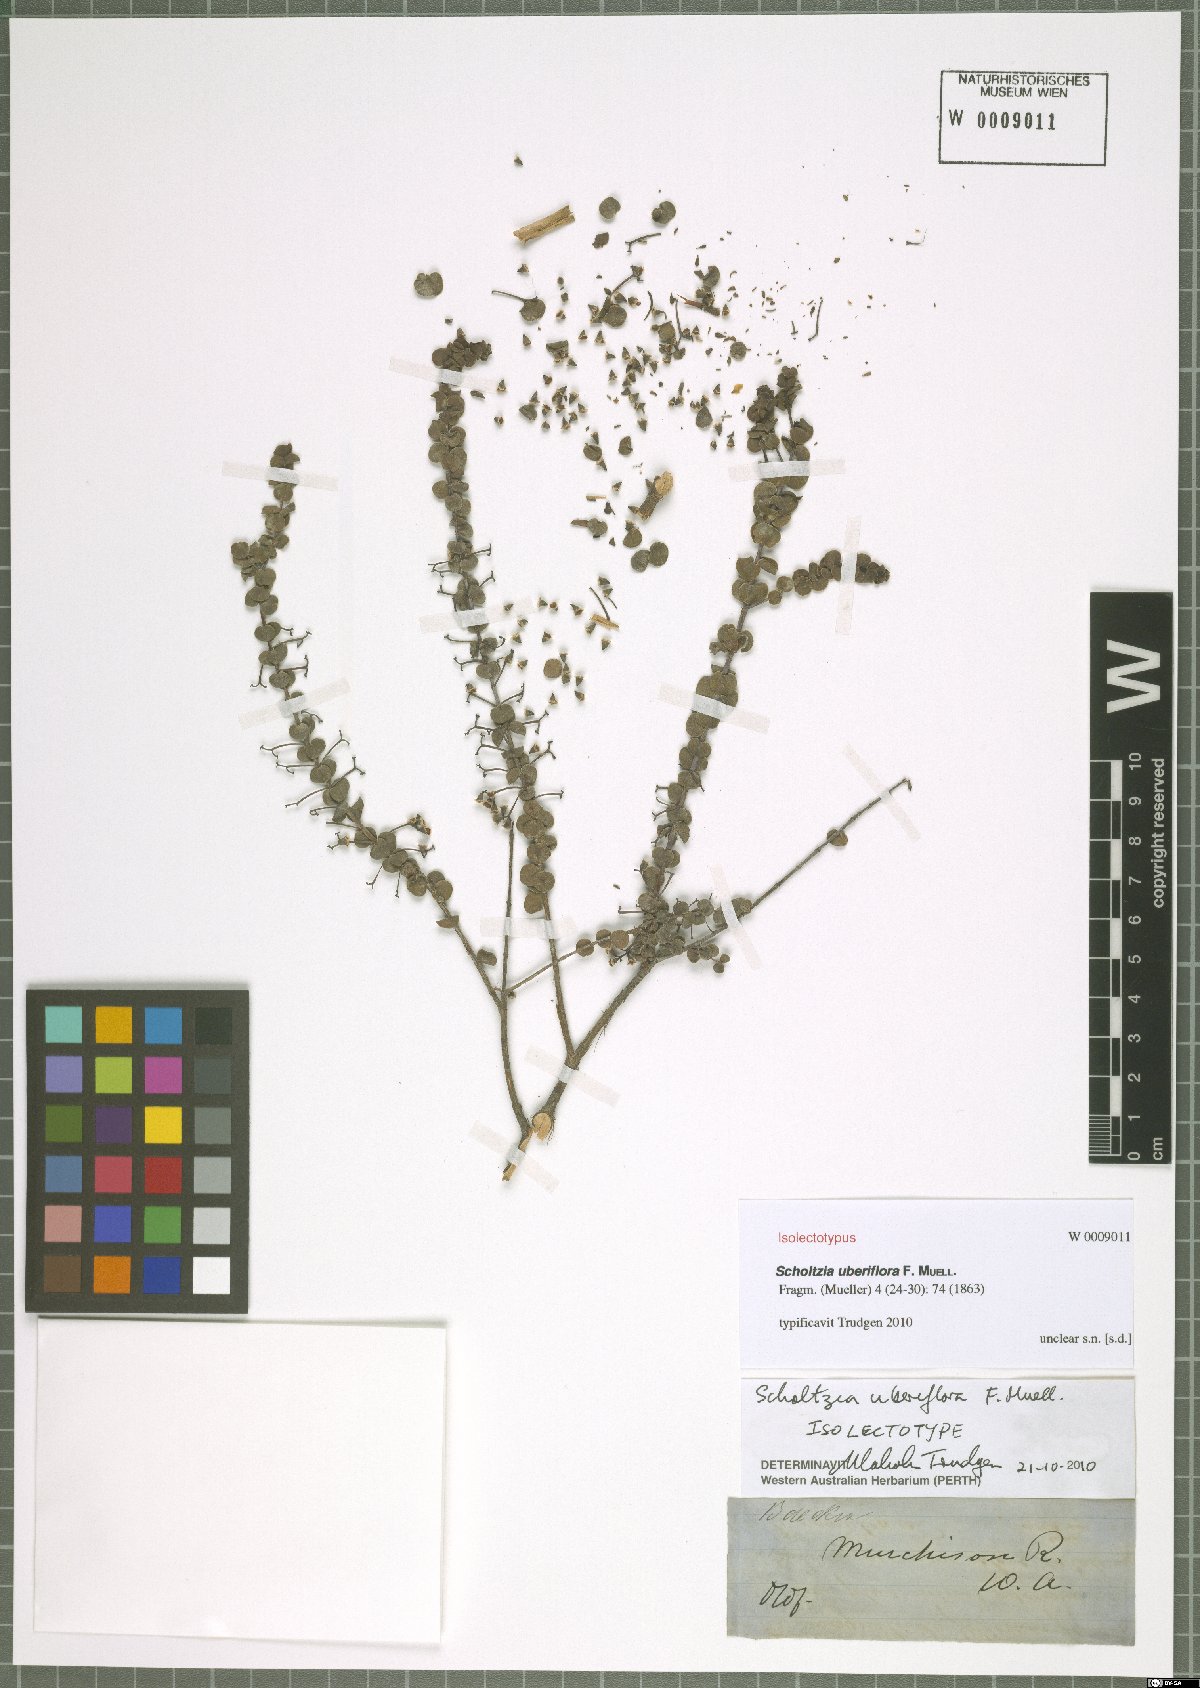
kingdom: Plantae
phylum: Tracheophyta
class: Magnoliopsida
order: Myrtales
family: Myrtaceae
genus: Scholtzia
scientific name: Scholtzia uberiflora
